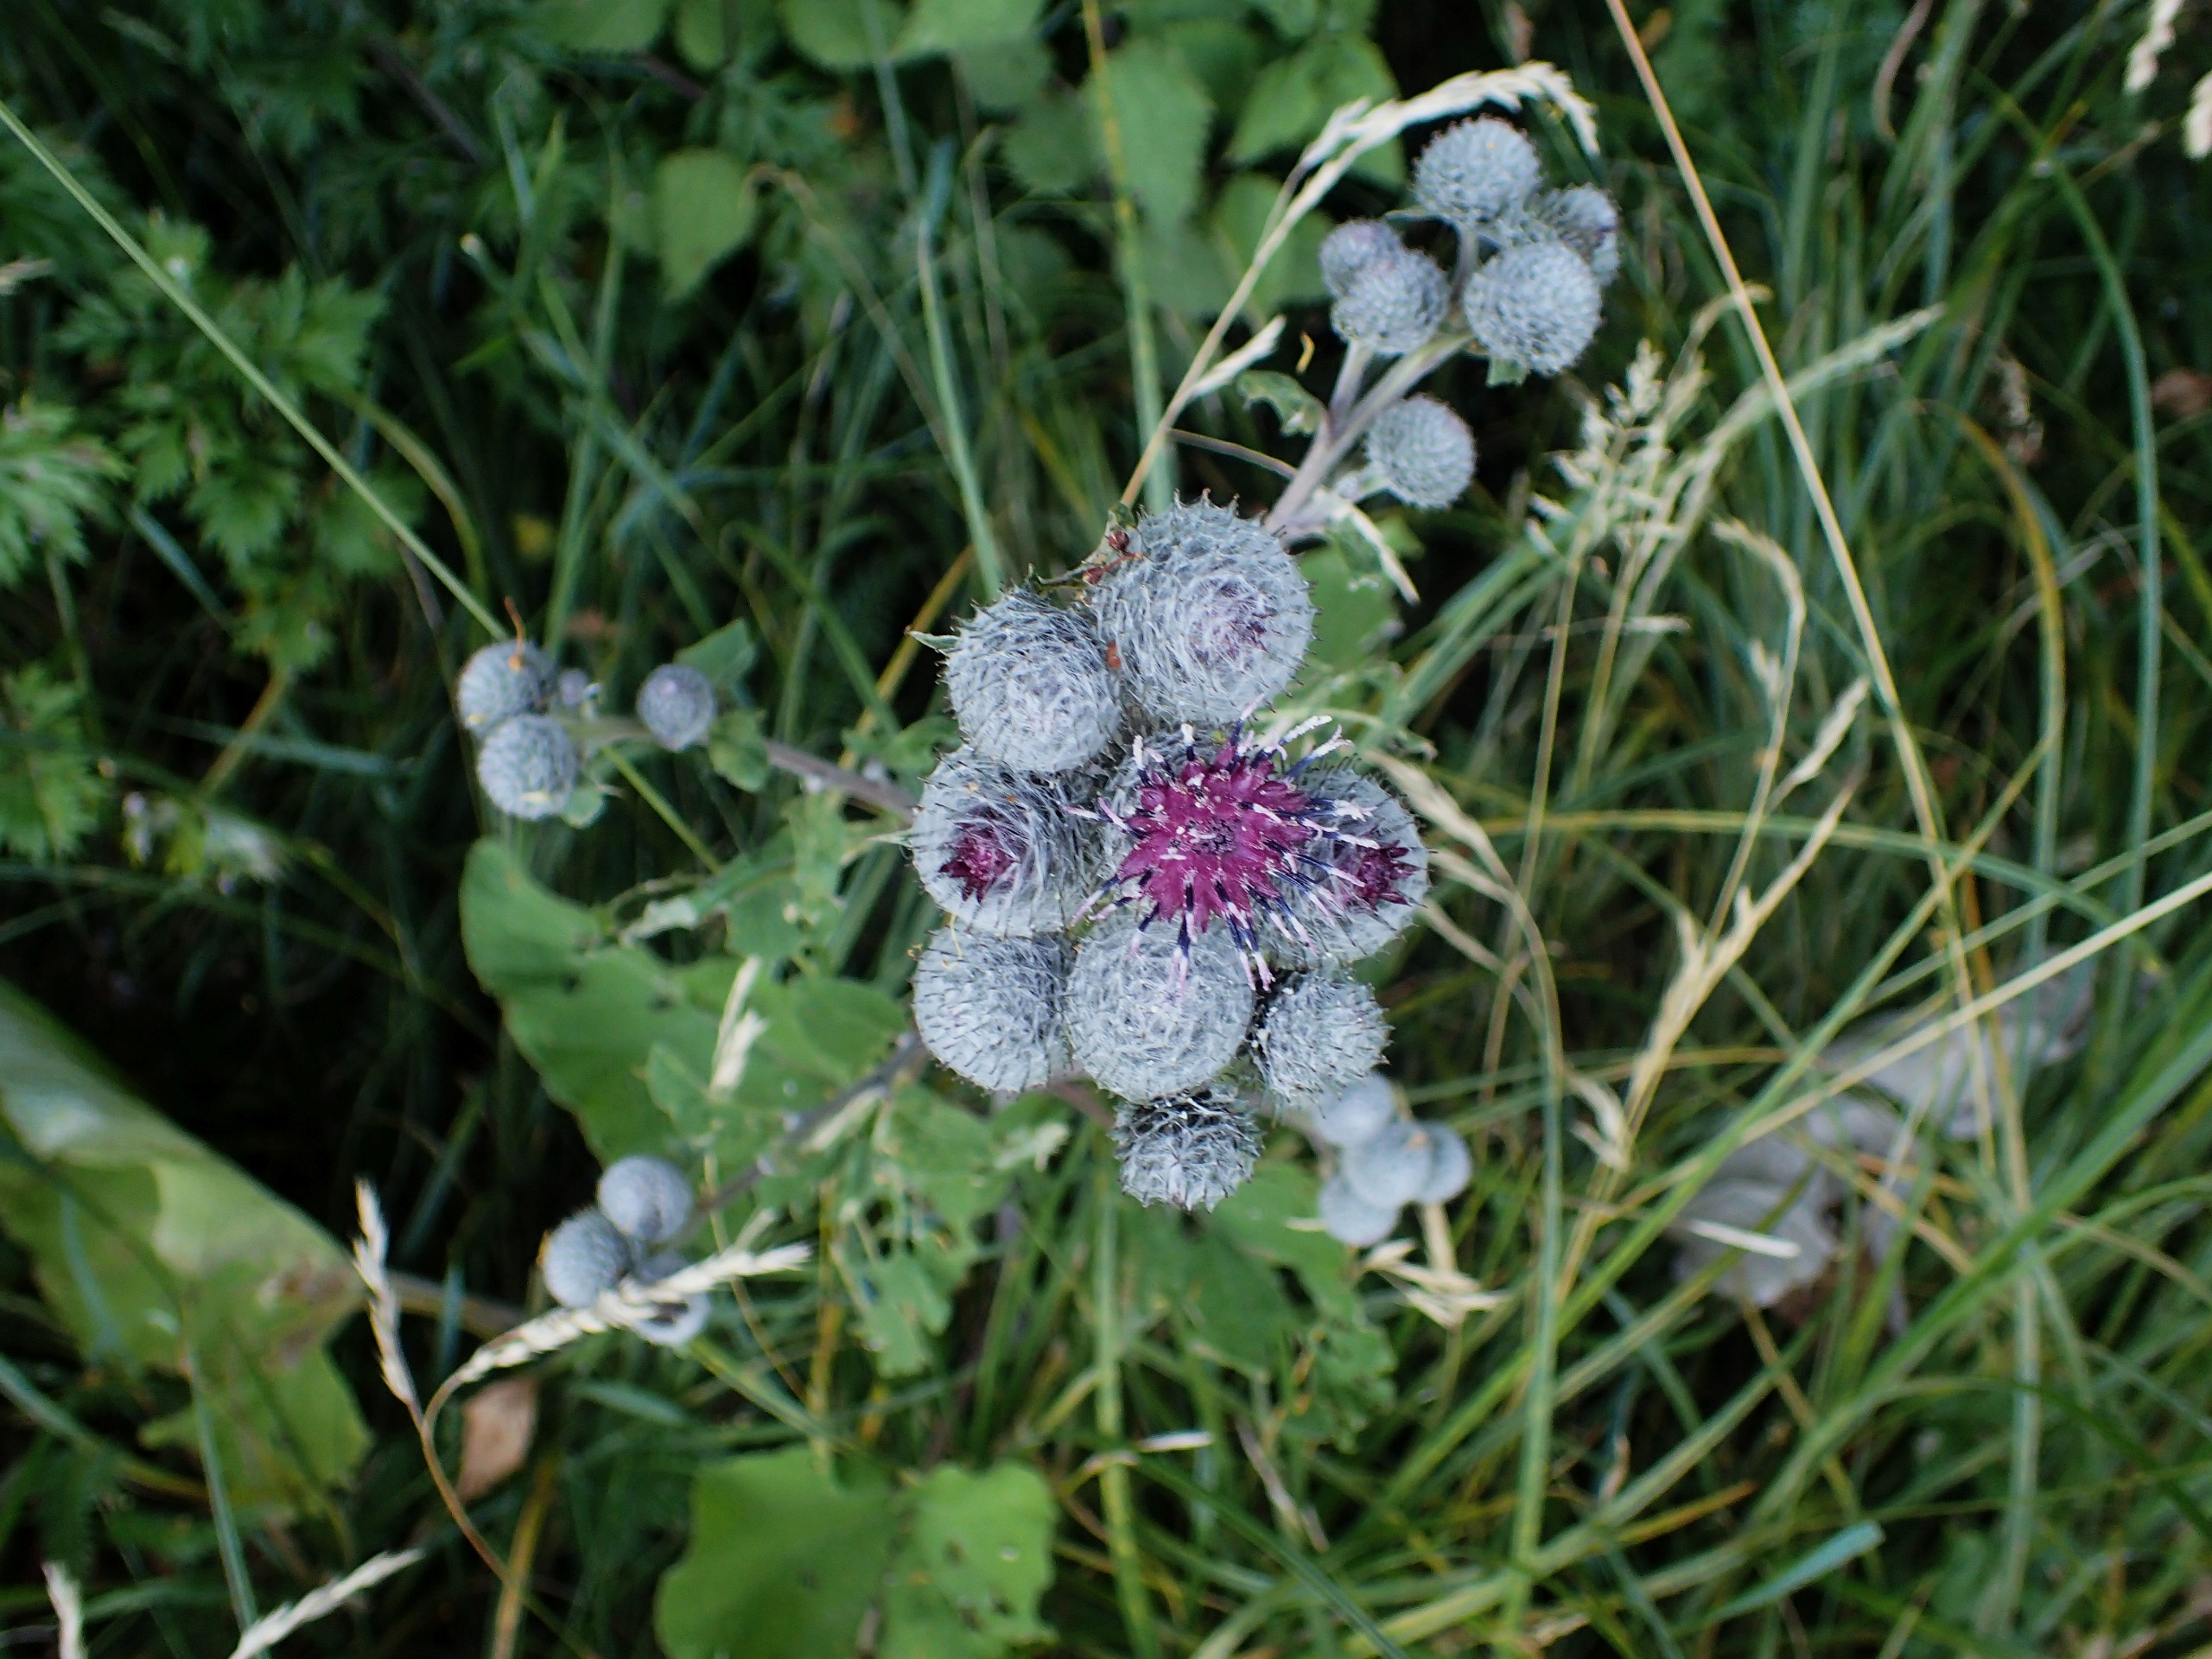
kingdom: Plantae
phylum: Tracheophyta
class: Magnoliopsida
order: Asterales
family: Asteraceae
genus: Arctium
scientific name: Arctium tomentosum
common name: Filtet burre
